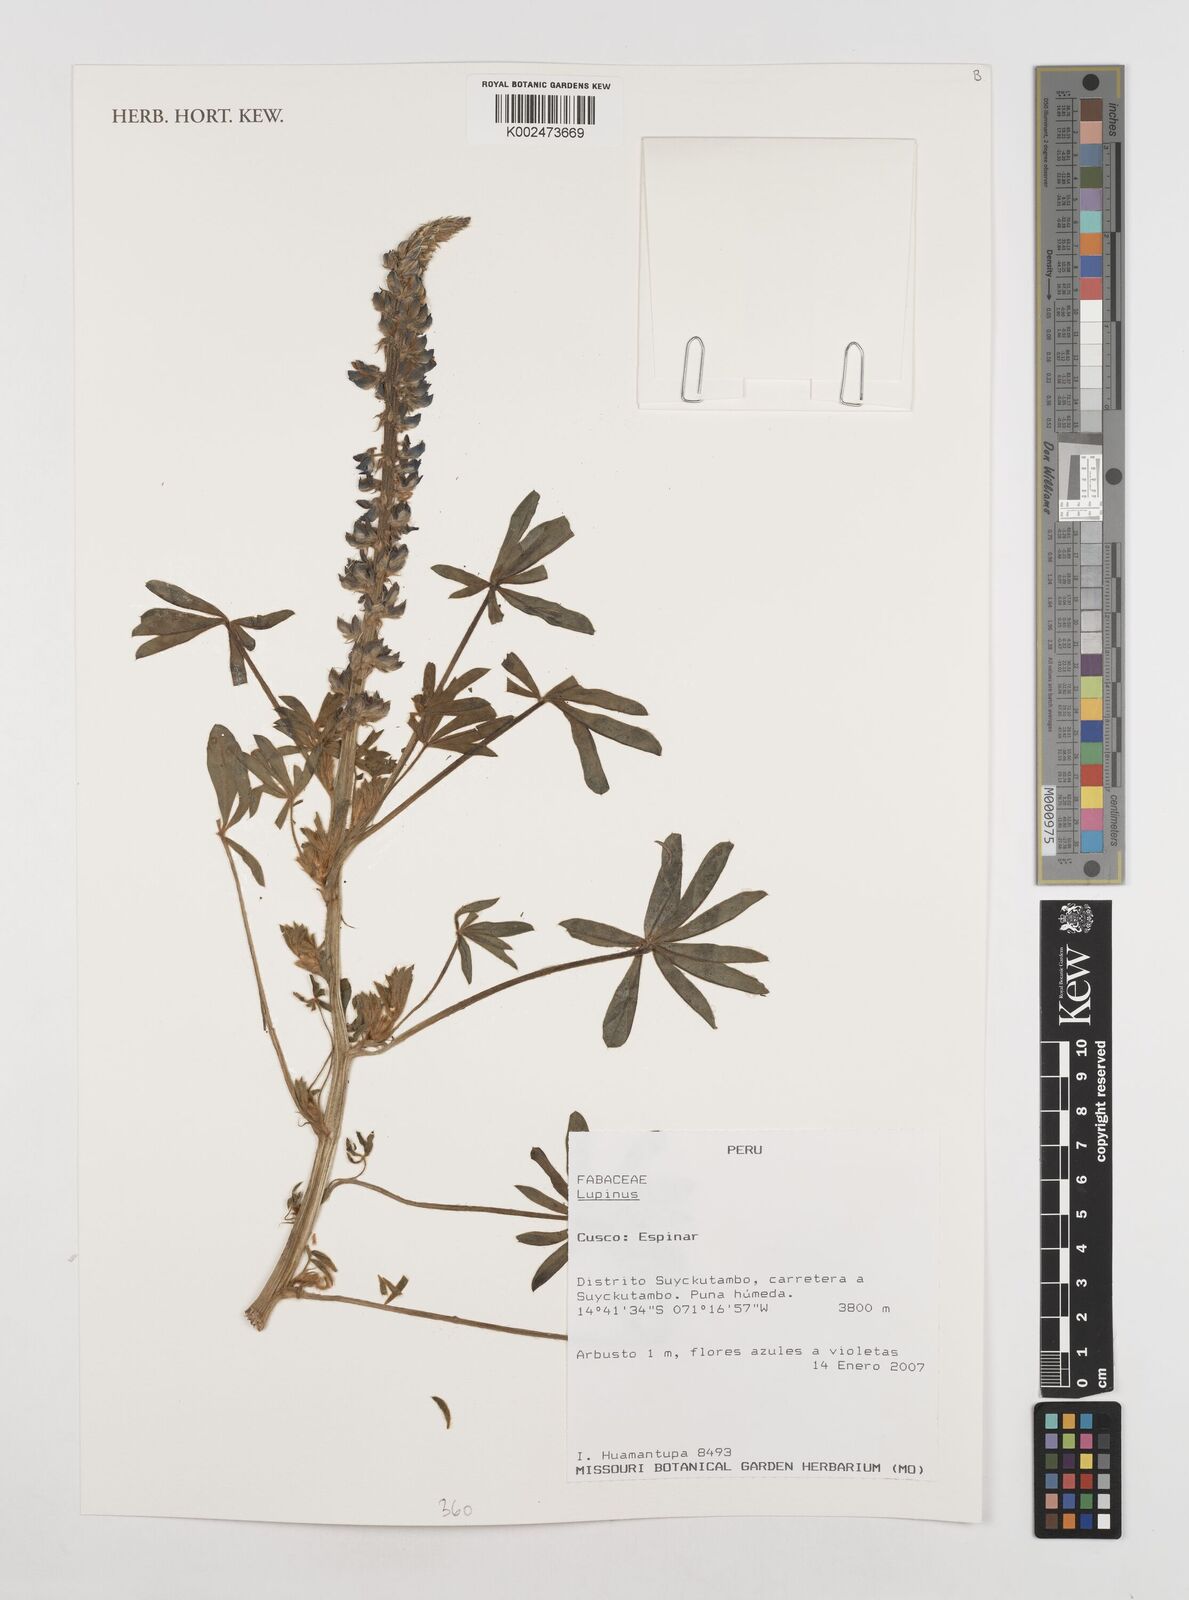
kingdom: Plantae
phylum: Tracheophyta
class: Magnoliopsida
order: Fabales
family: Fabaceae
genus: Lupinus
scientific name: Lupinus
